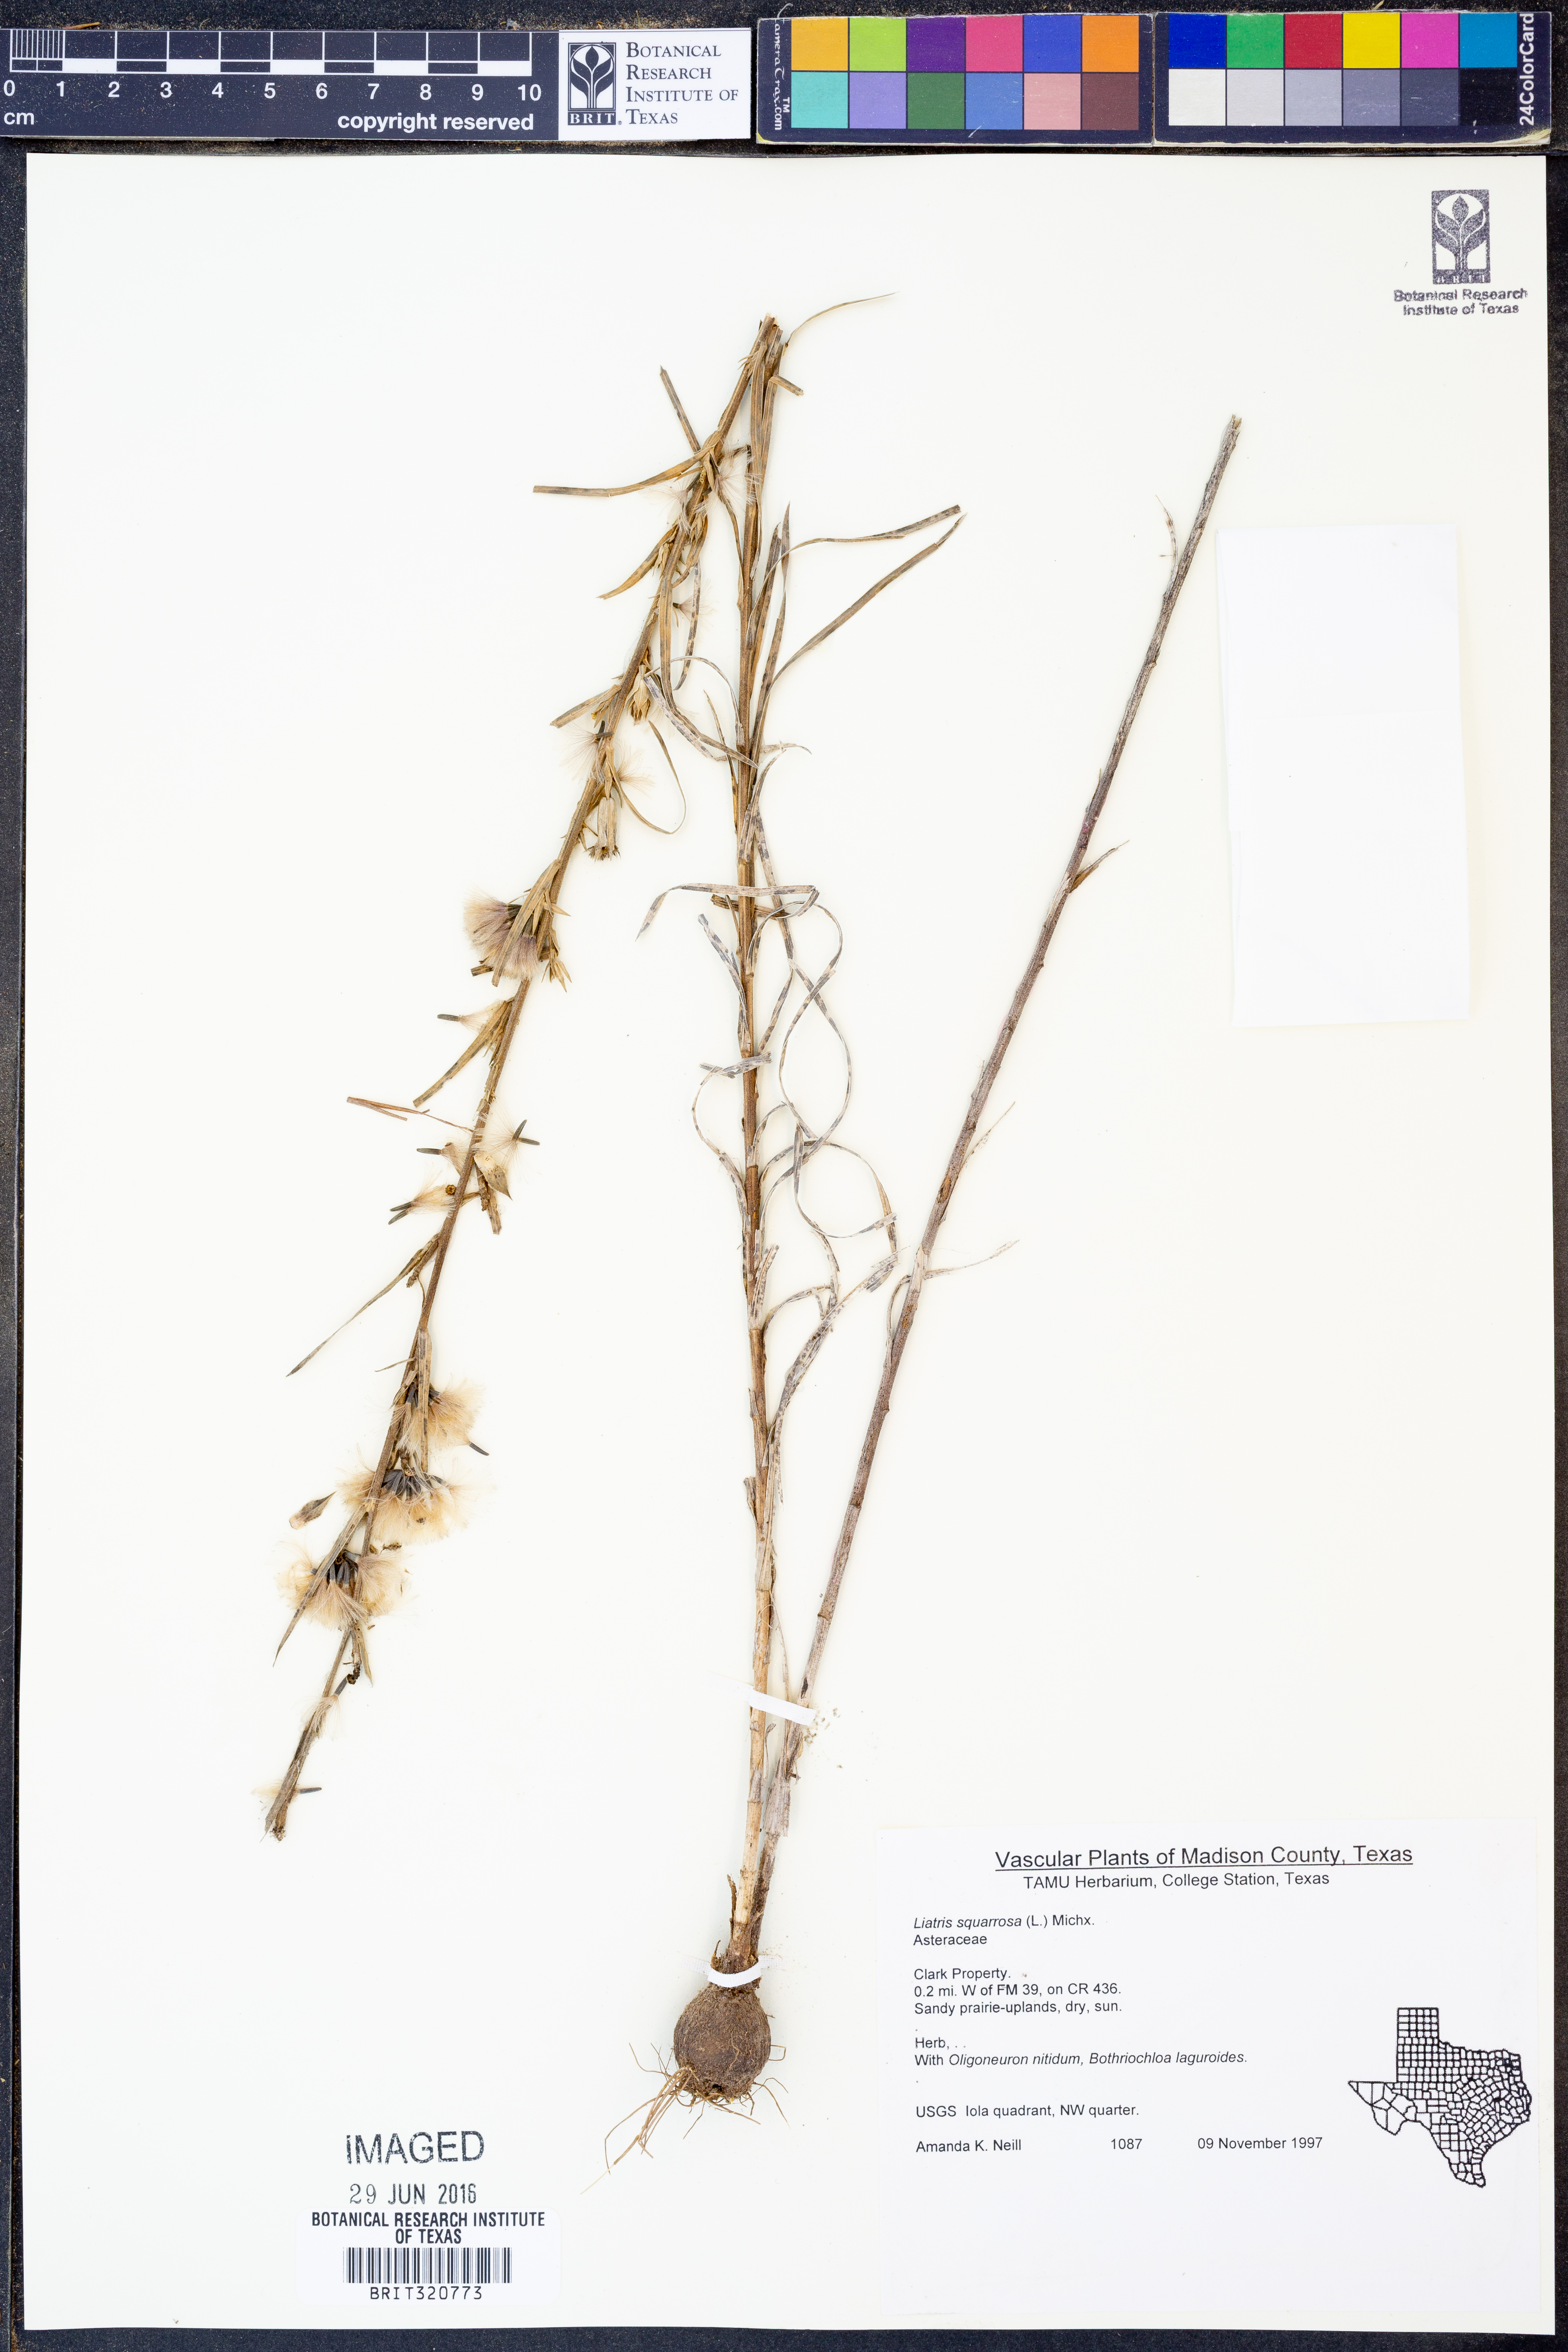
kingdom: Plantae
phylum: Tracheophyta
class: Magnoliopsida
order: Asterales
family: Asteraceae
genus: Liatris
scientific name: Liatris squarrosa
